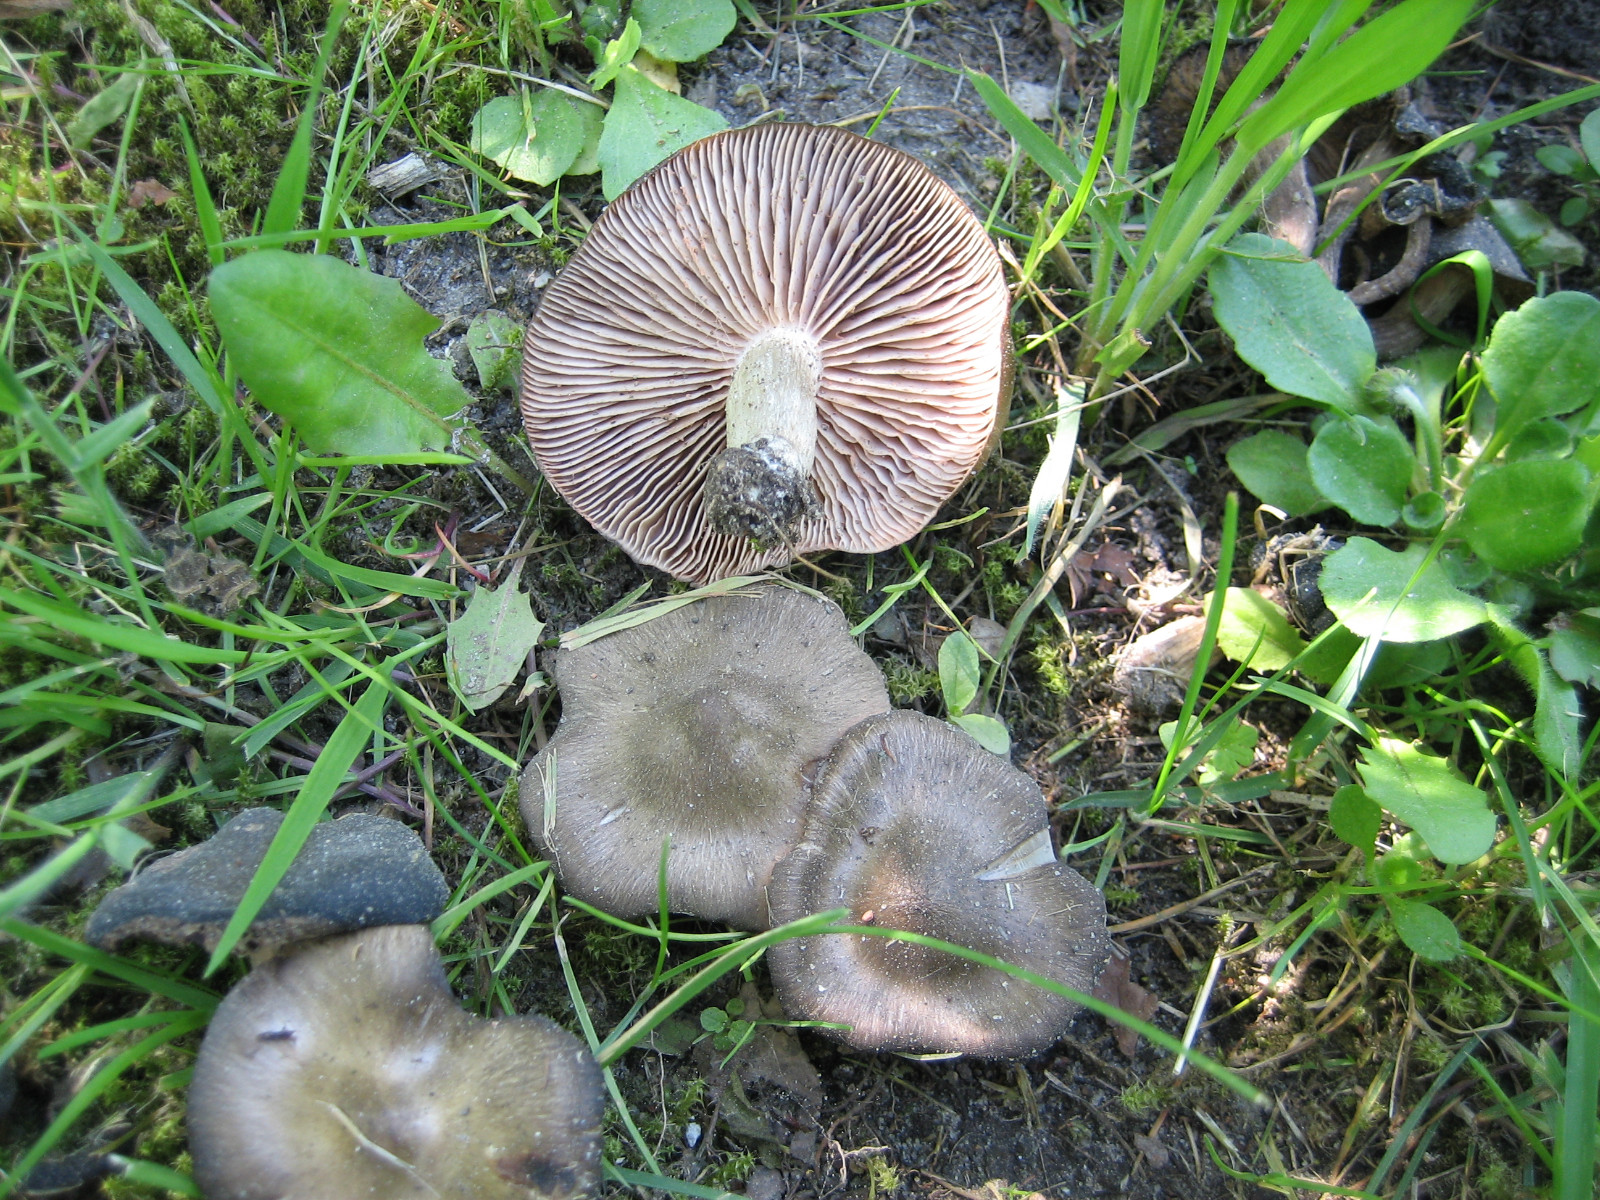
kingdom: Fungi
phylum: Basidiomycota
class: Agaricomycetes
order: Agaricales
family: Entolomataceae
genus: Entoloma
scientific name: Entoloma clypeatum
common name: flammet rødblad
